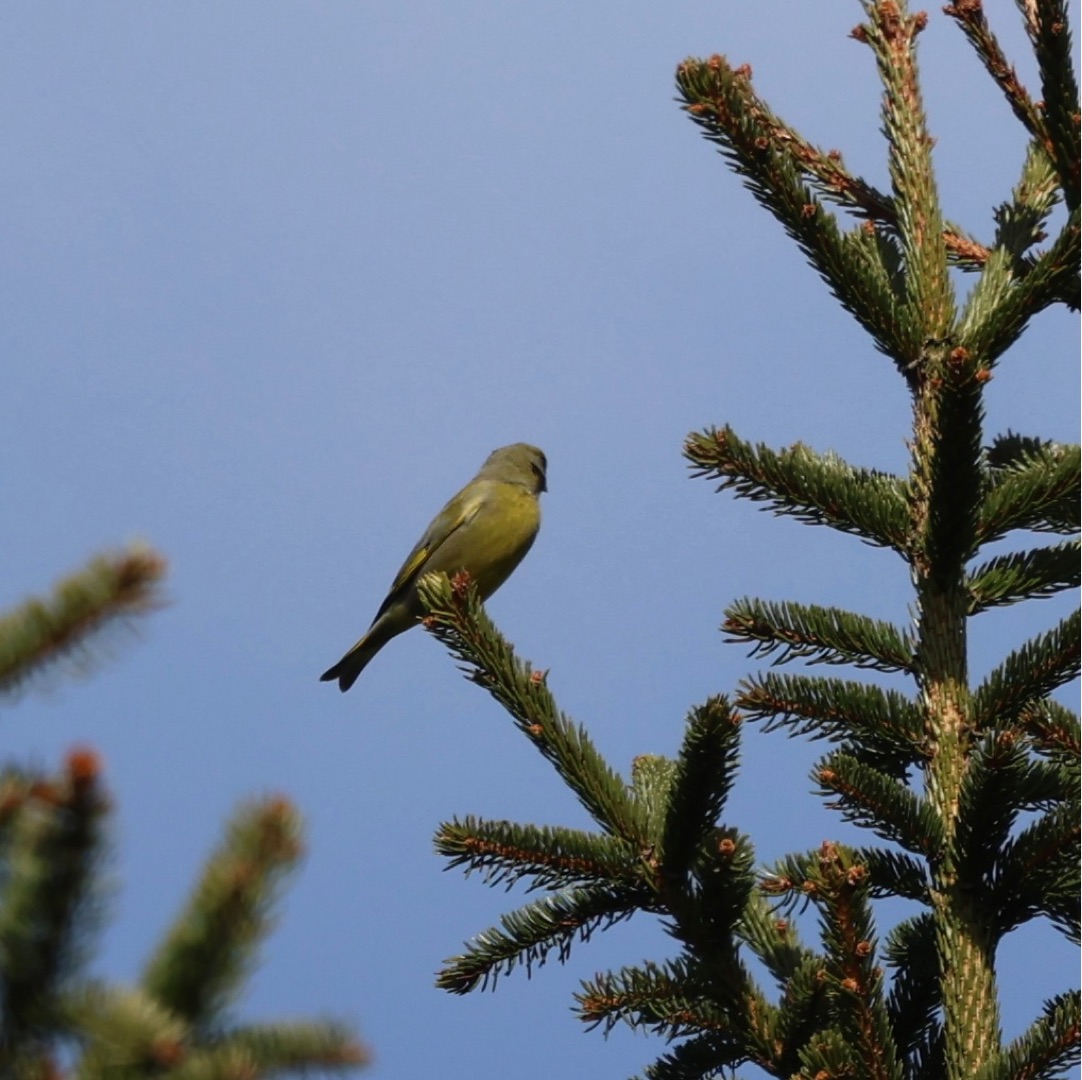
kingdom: Plantae
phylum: Tracheophyta
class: Liliopsida
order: Poales
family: Poaceae
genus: Chloris
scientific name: Chloris chloris
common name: Grønirisk
